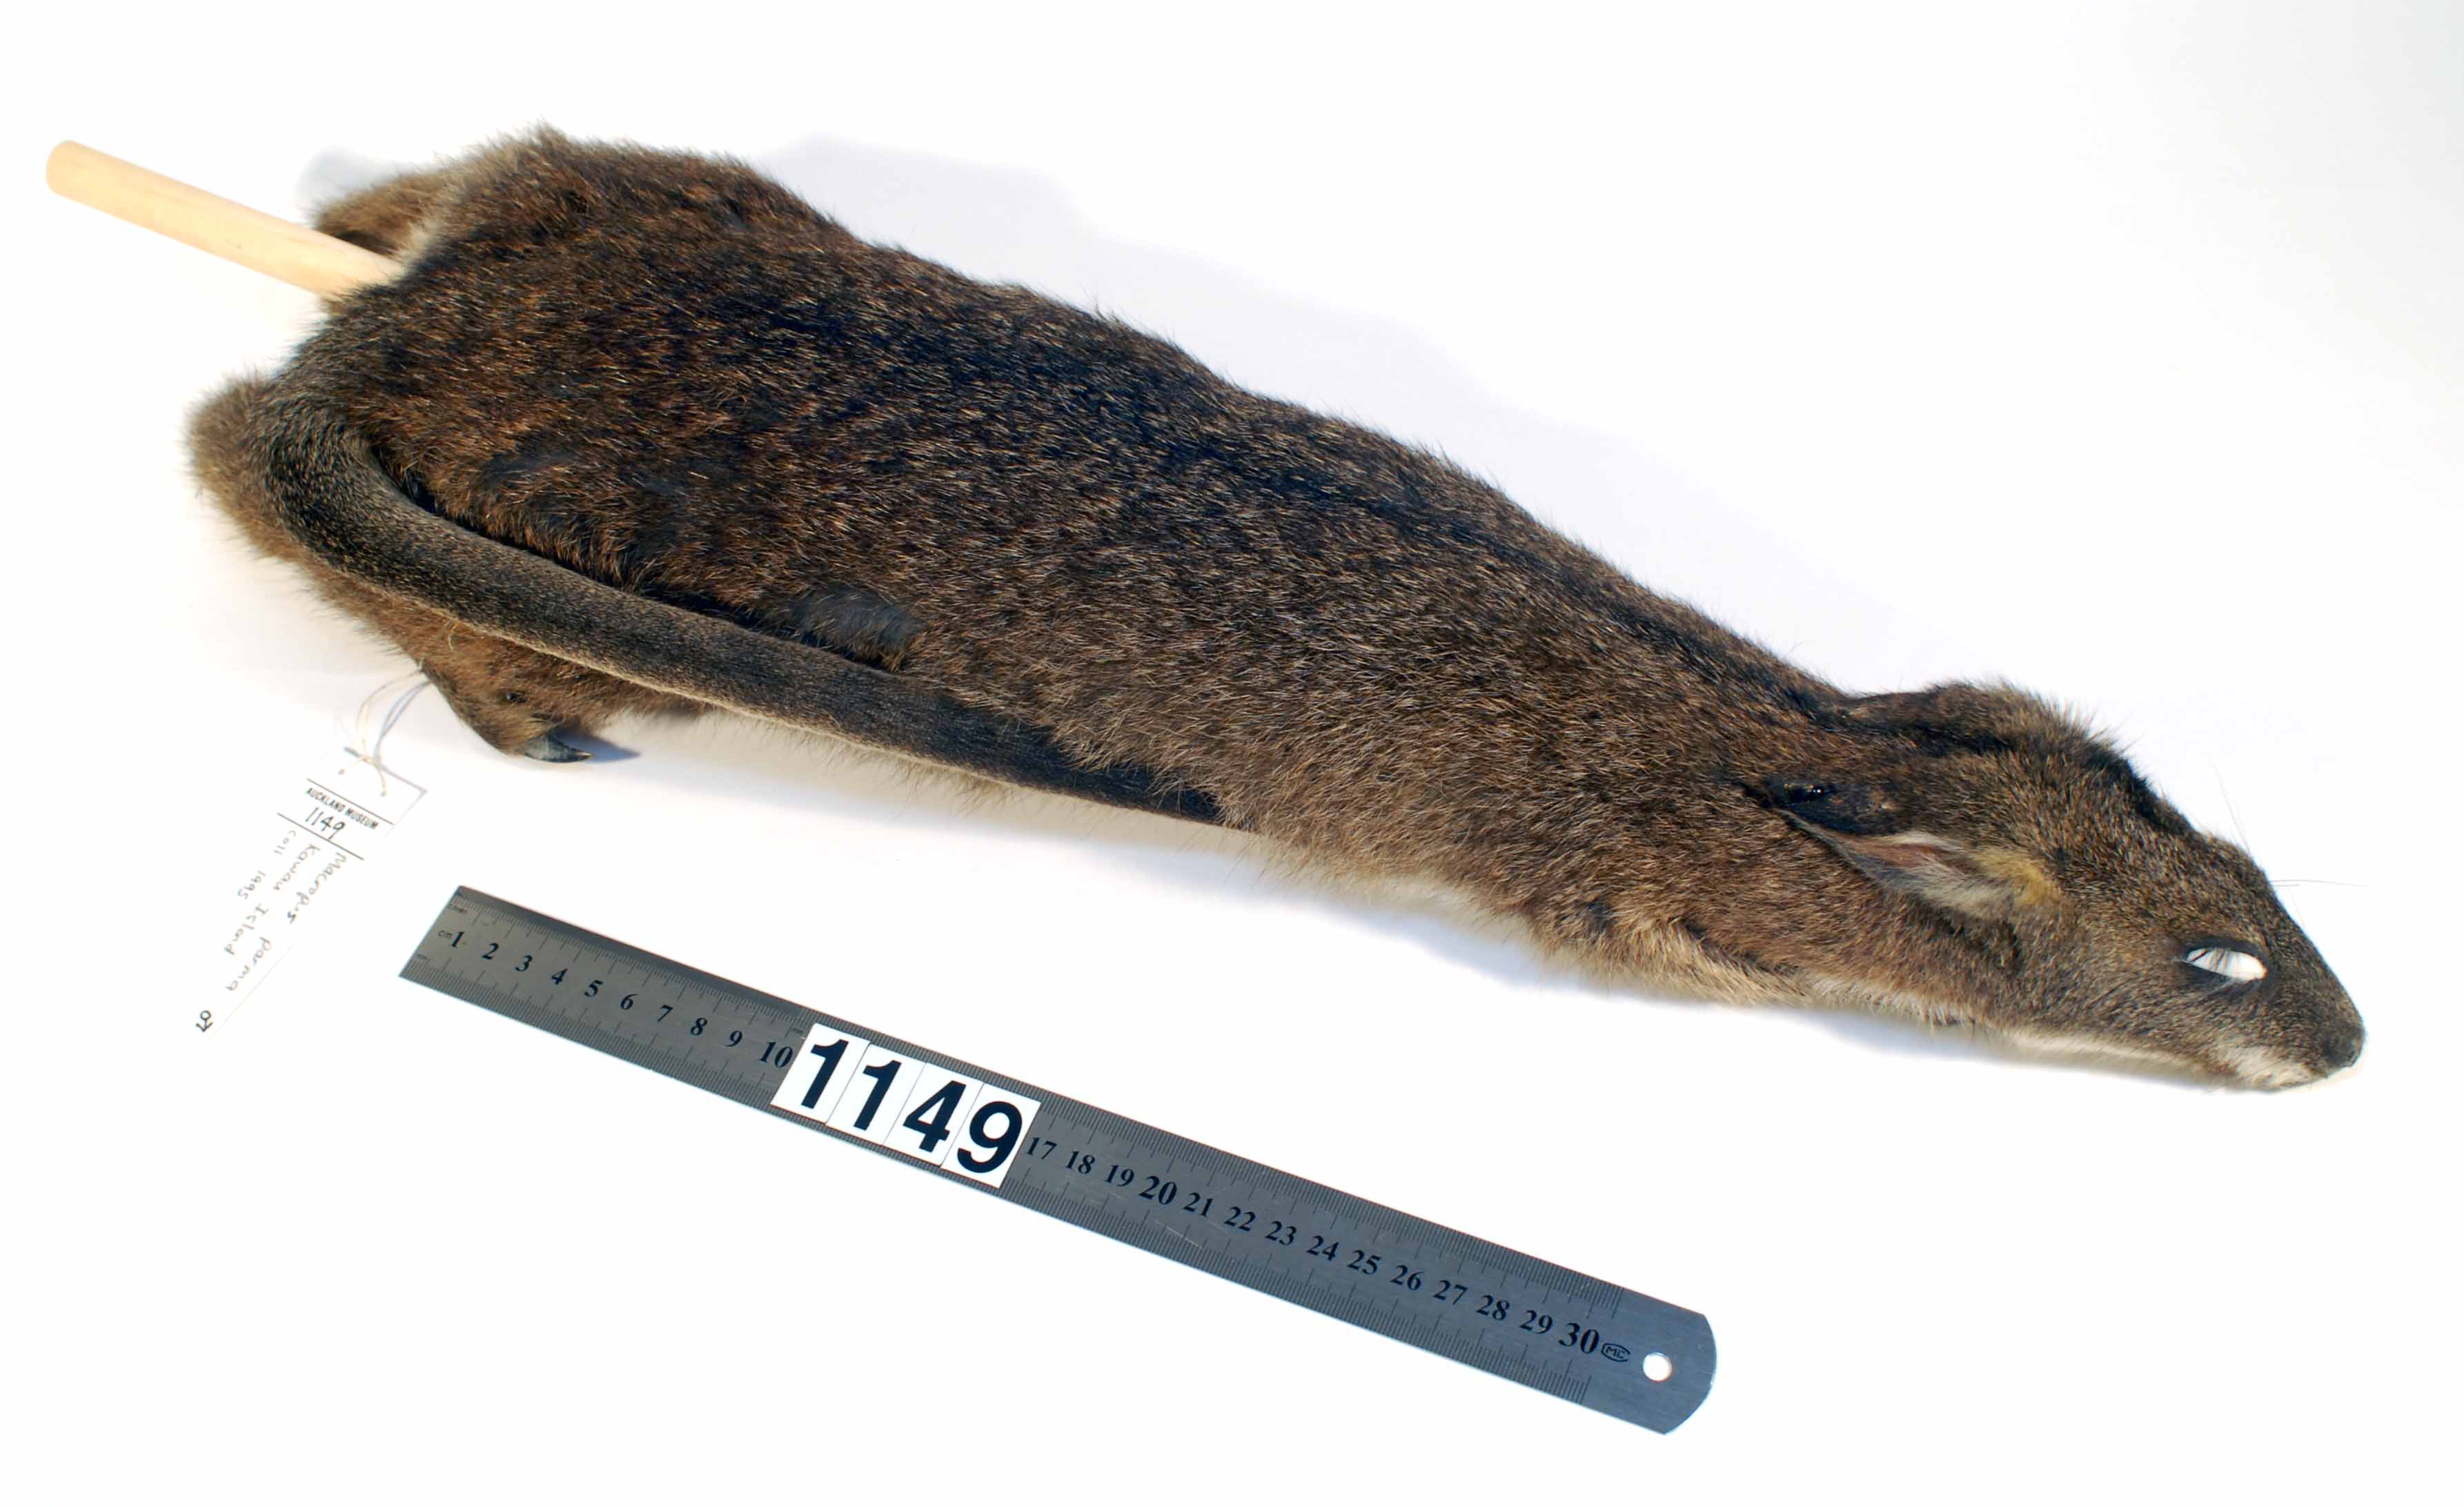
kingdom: Animalia
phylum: Chordata
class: Mammalia
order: Diprotodontia
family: Macropodidae
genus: Macropus
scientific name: Macropus parma
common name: Parma wallaby
